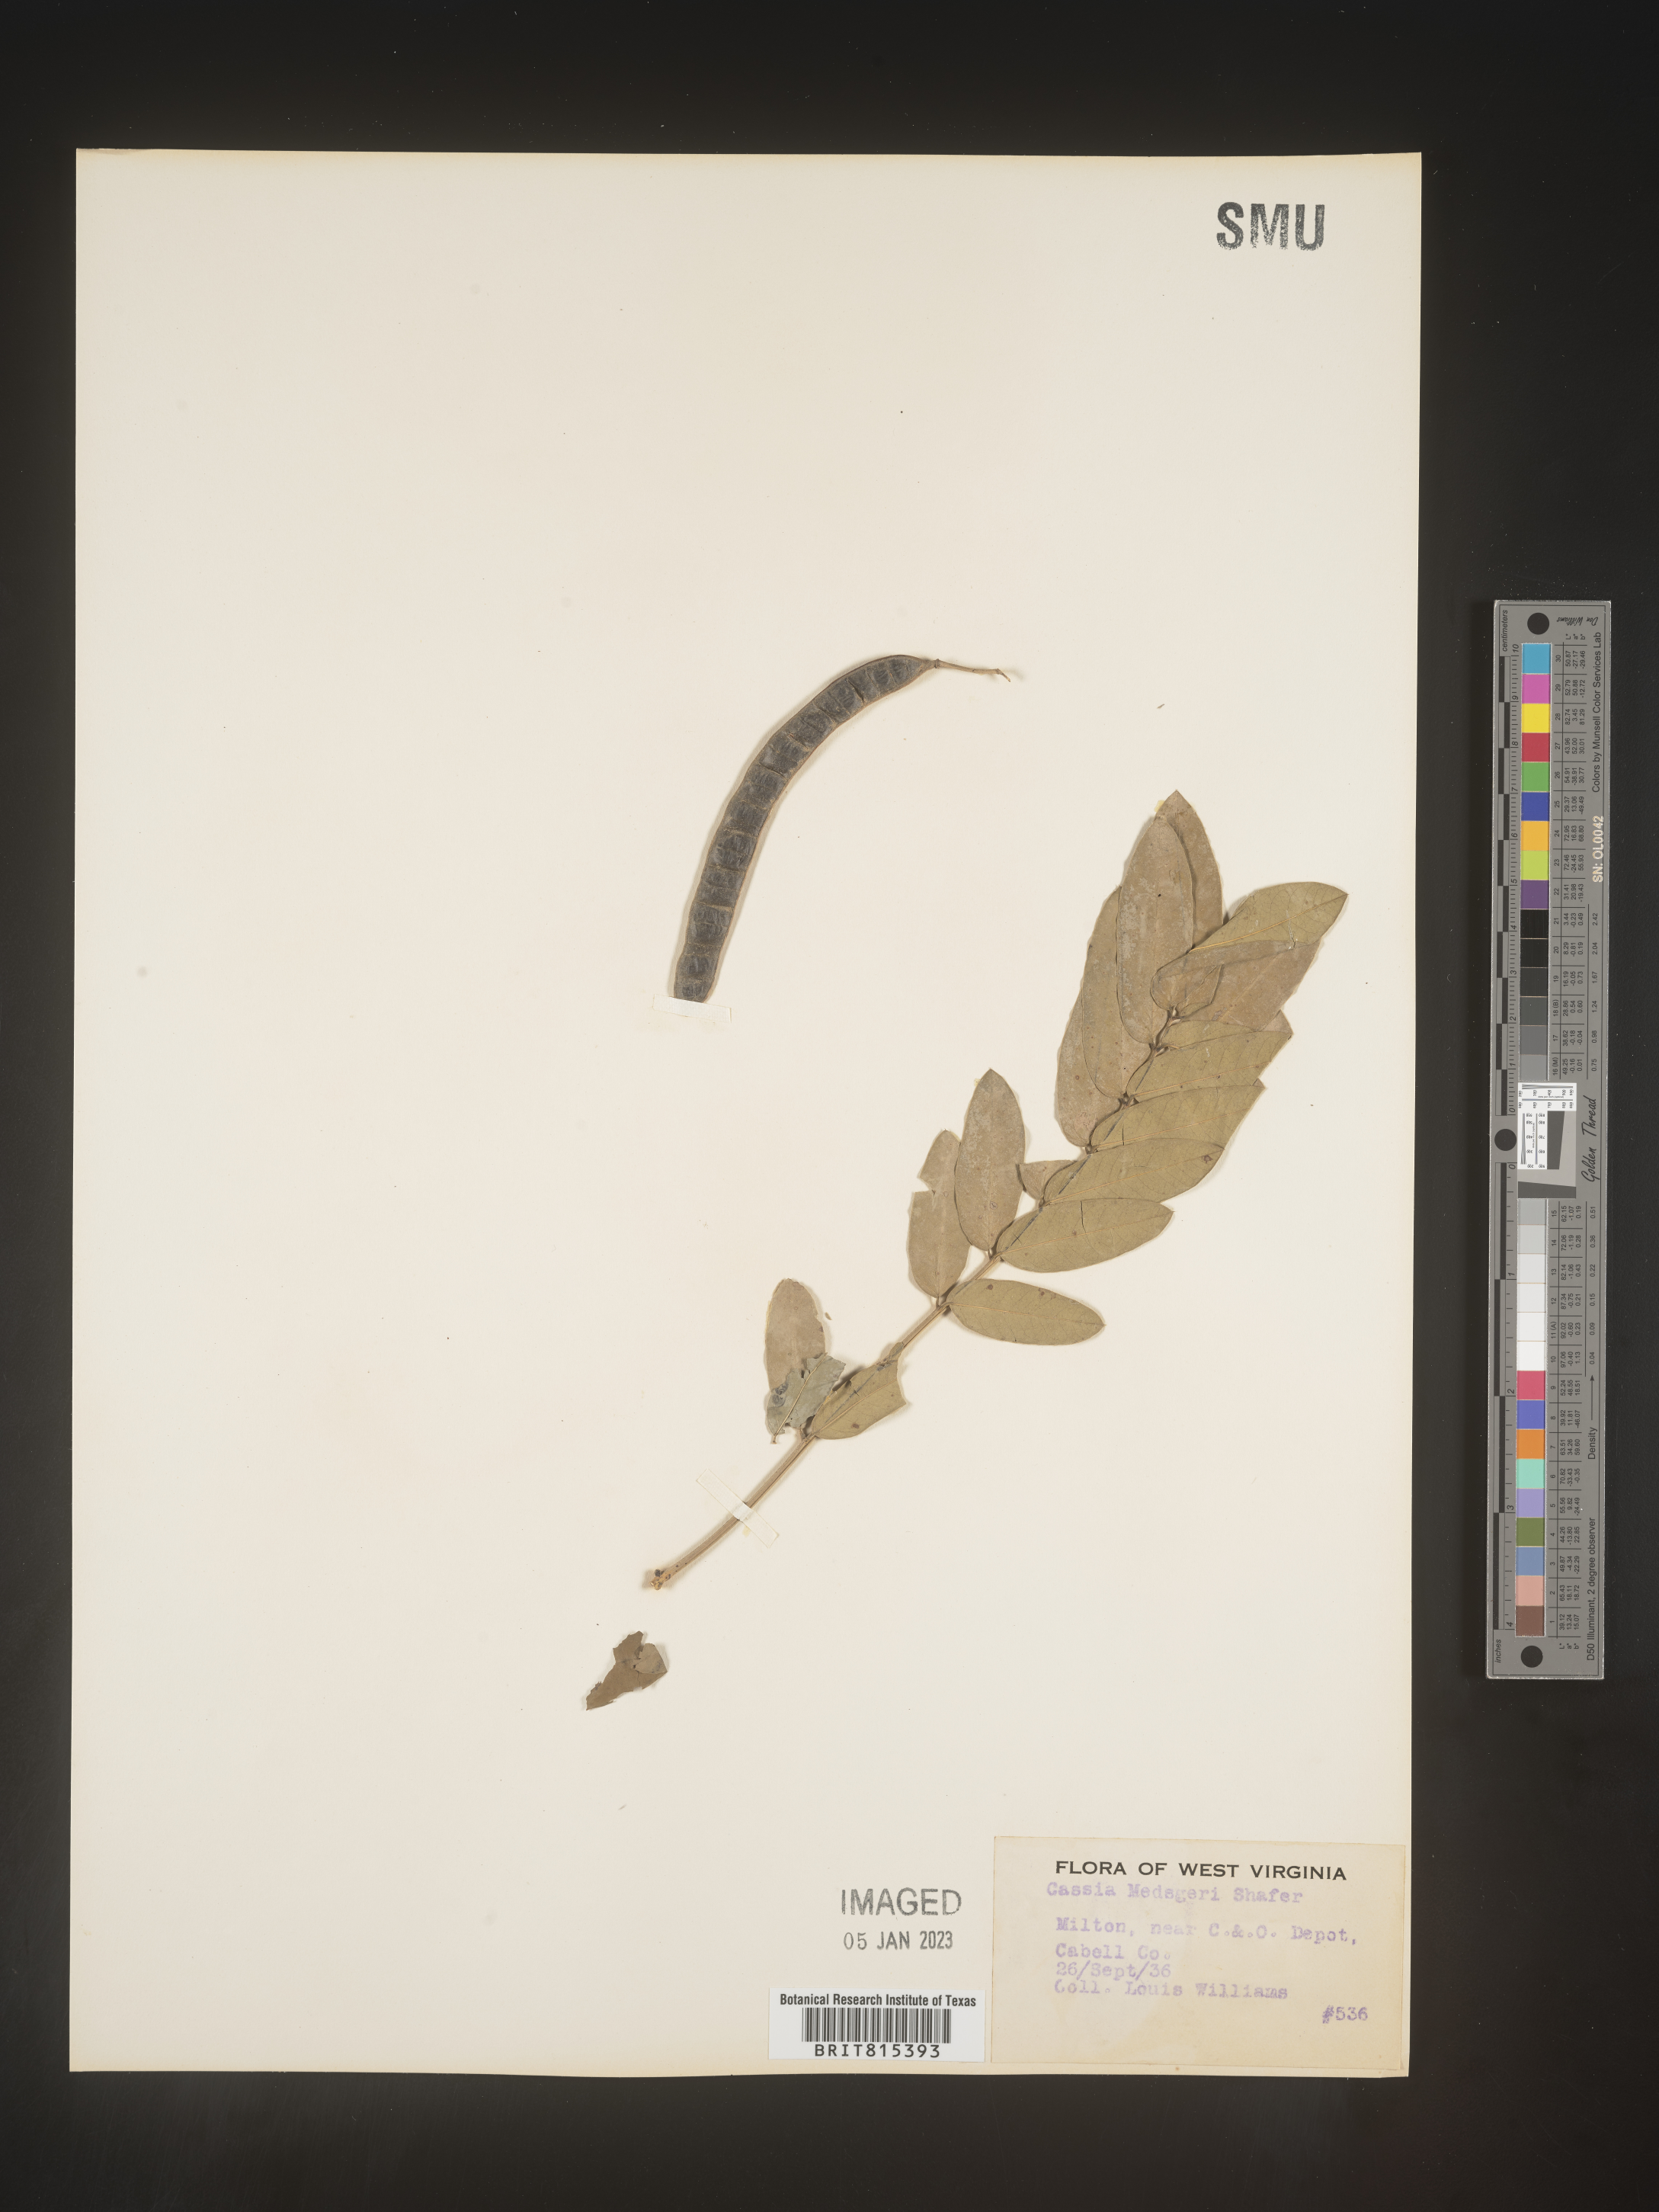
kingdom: Plantae
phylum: Tracheophyta
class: Magnoliopsida
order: Fabales
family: Fabaceae
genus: Senna
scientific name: Senna marilandica
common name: American senna
